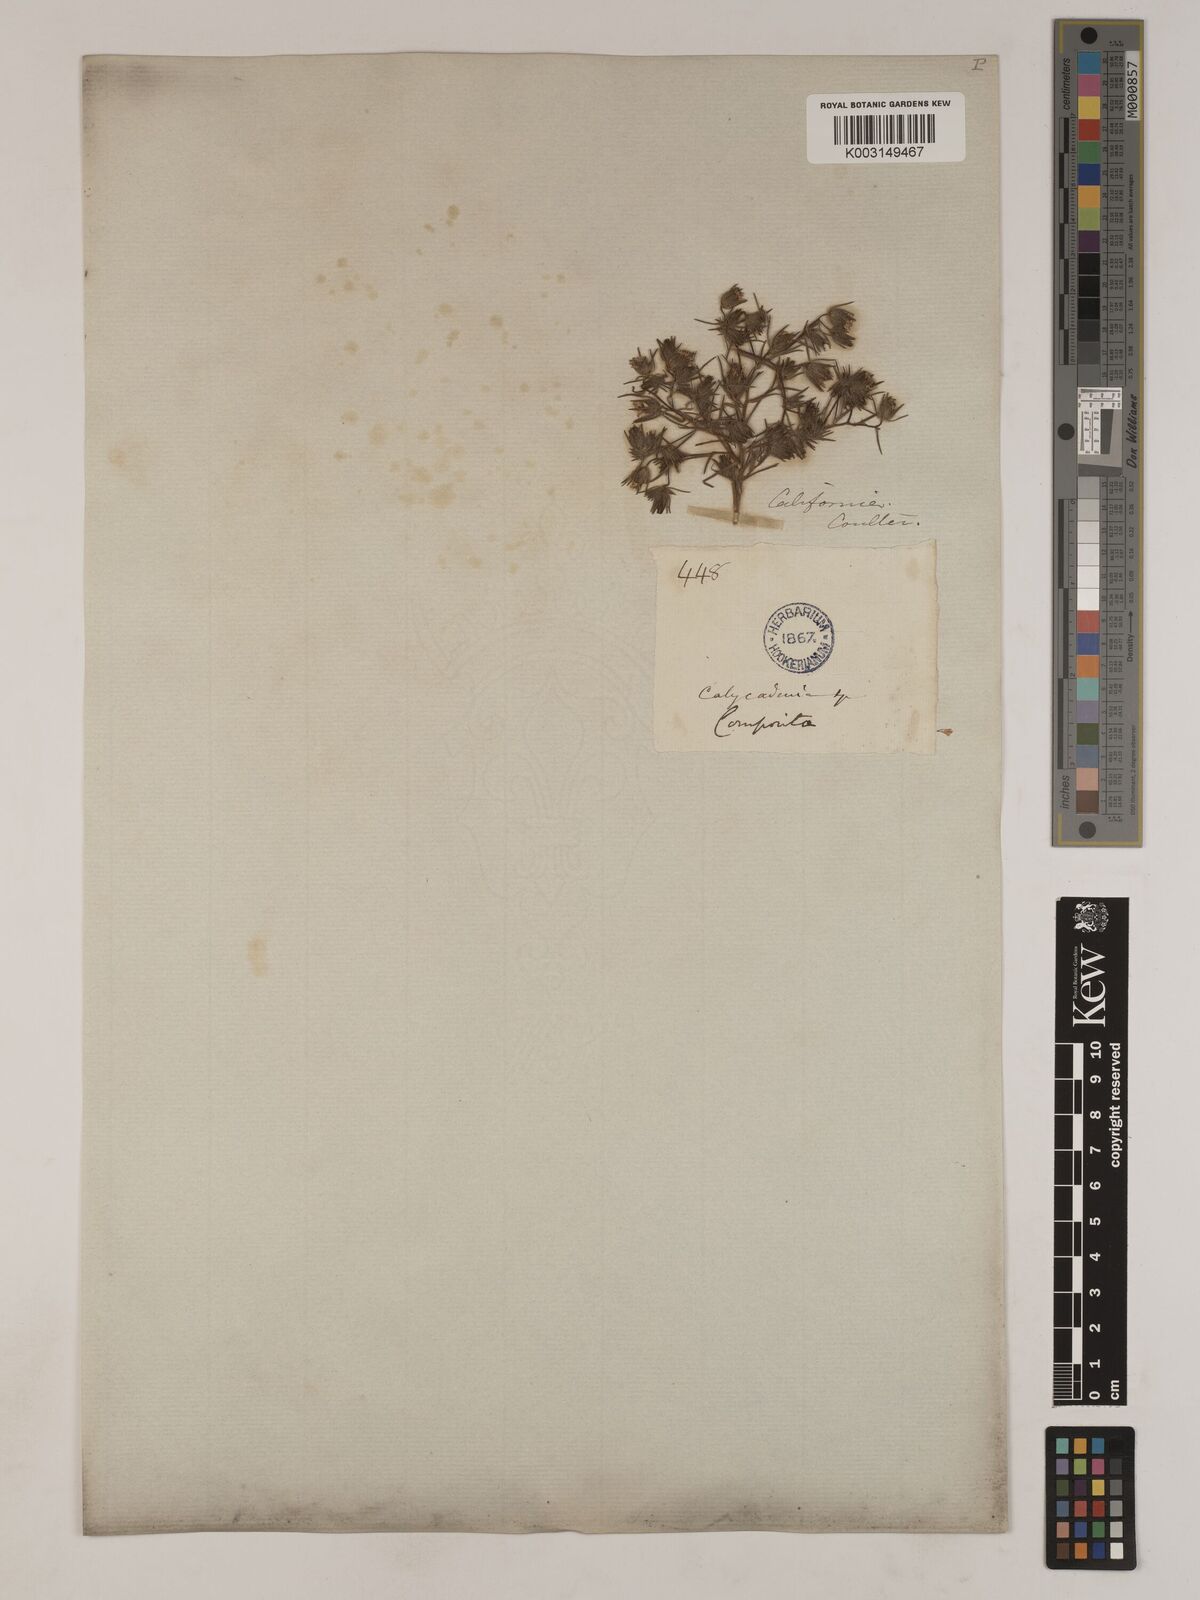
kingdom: Plantae
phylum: Tracheophyta
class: Magnoliopsida
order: Asterales
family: Asteraceae
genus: Osmadenia
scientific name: Osmadenia tenella
